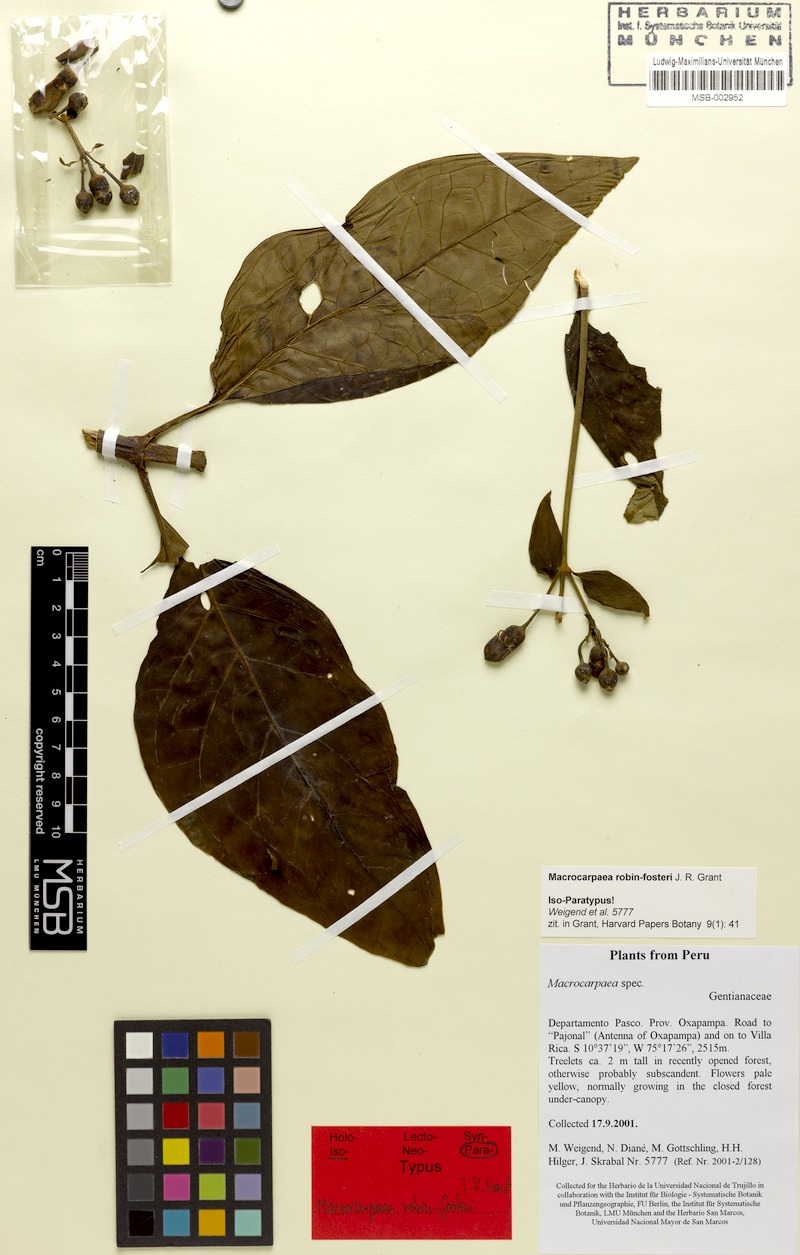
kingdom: Plantae
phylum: Tracheophyta
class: Magnoliopsida
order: Gentianales
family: Gentianaceae
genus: Macrocarpaea
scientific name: Macrocarpaea robin-fosteri
